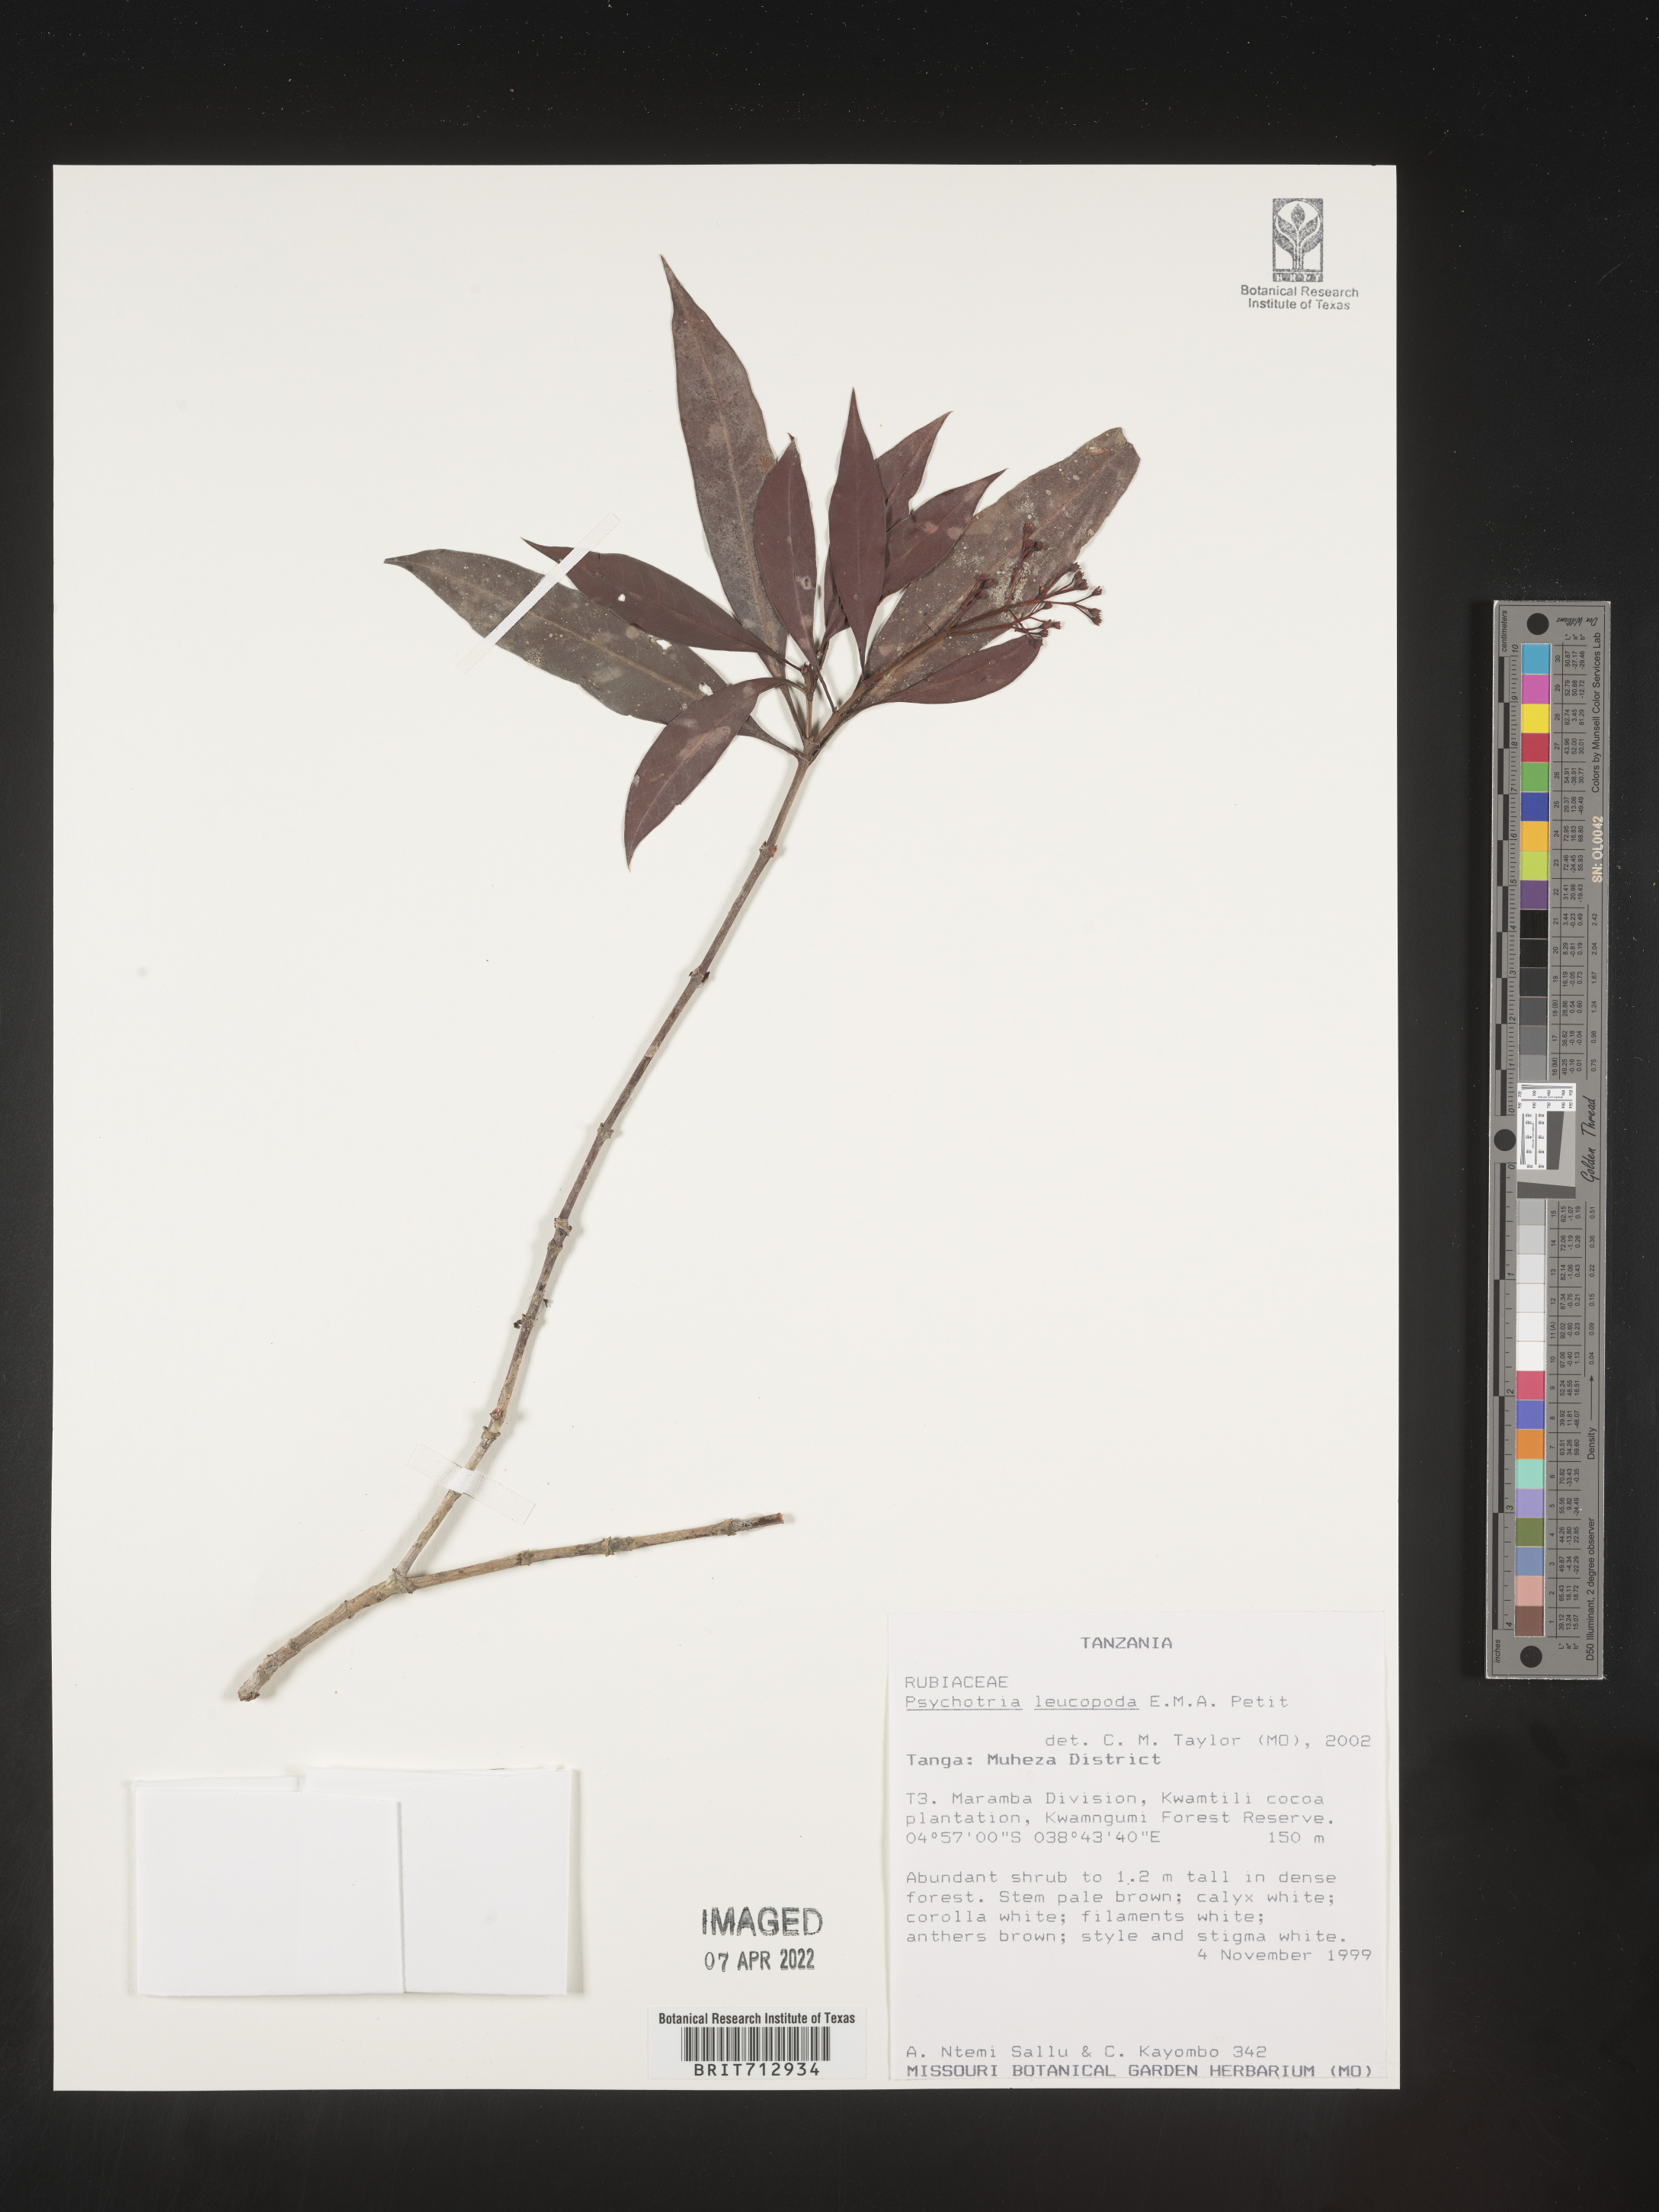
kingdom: Plantae
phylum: Tracheophyta
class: Magnoliopsida
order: Gentianales
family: Rubiaceae
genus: Psychotria
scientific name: Psychotria
